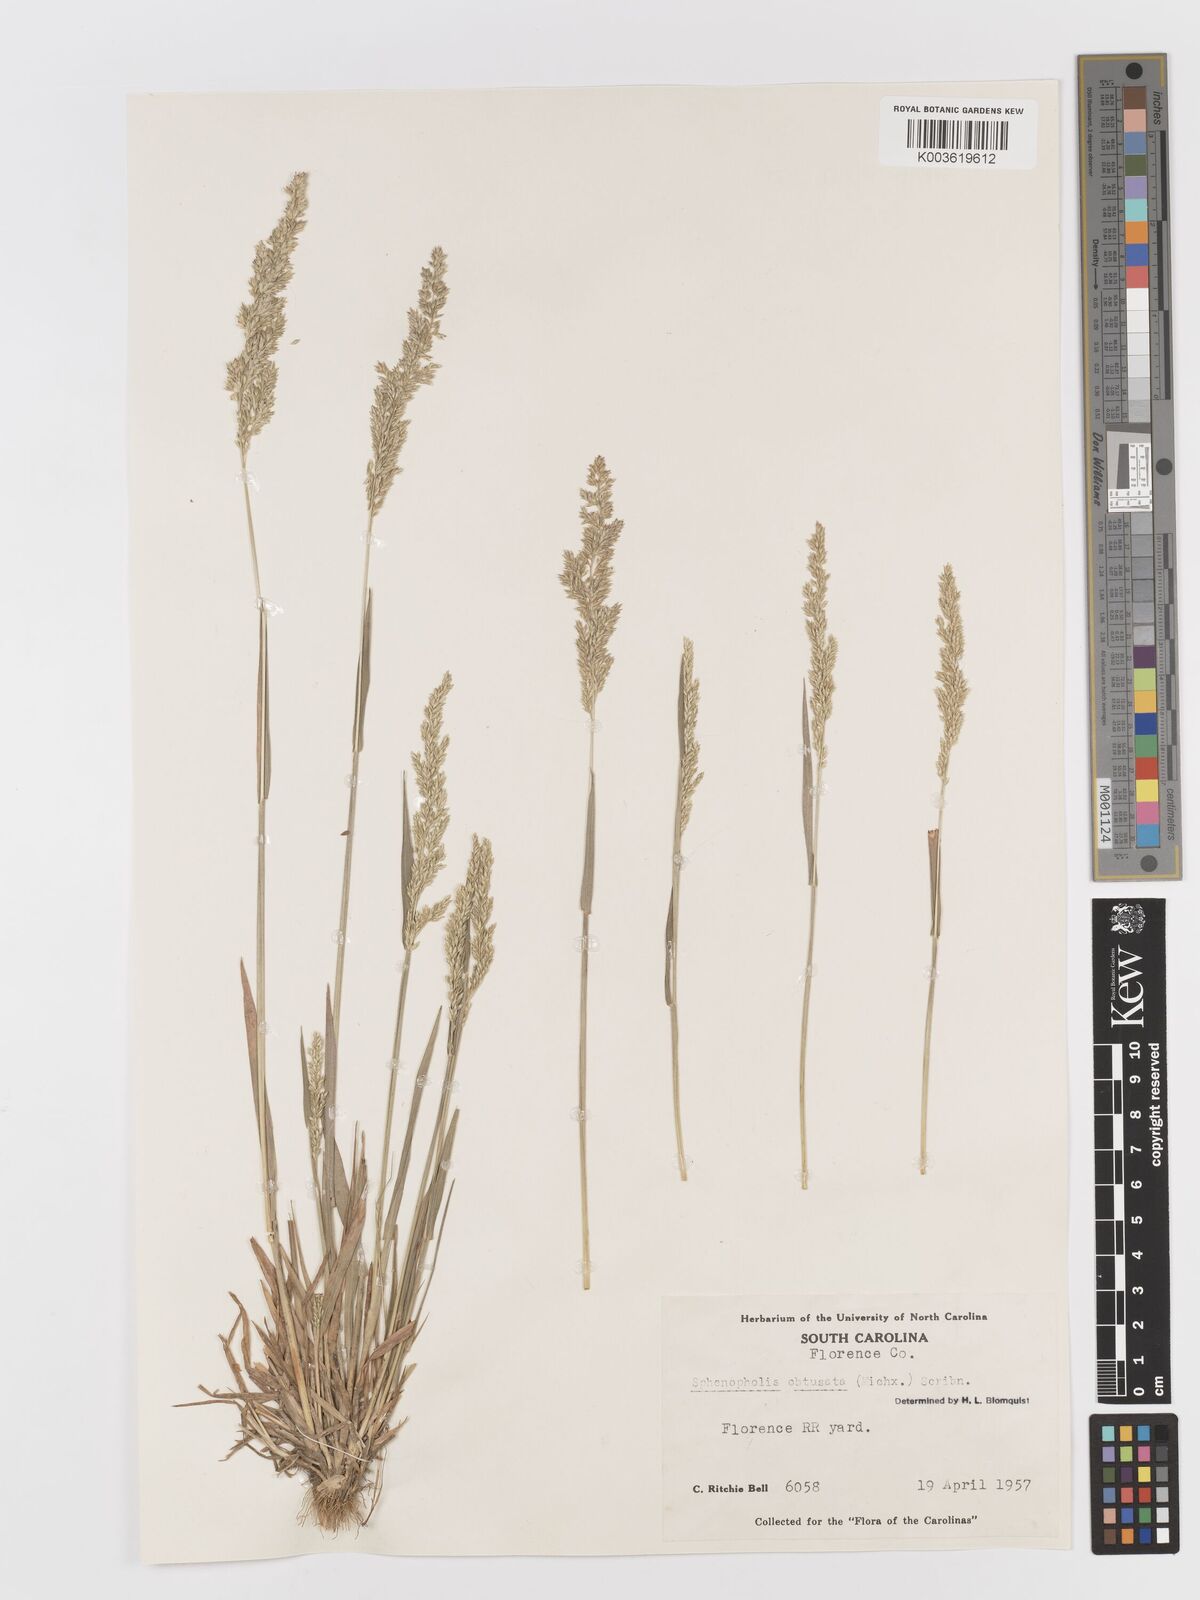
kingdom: Plantae
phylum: Tracheophyta
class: Liliopsida
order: Poales
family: Poaceae
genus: Sphenopholis
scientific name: Sphenopholis obtusata
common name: Prairie grass
